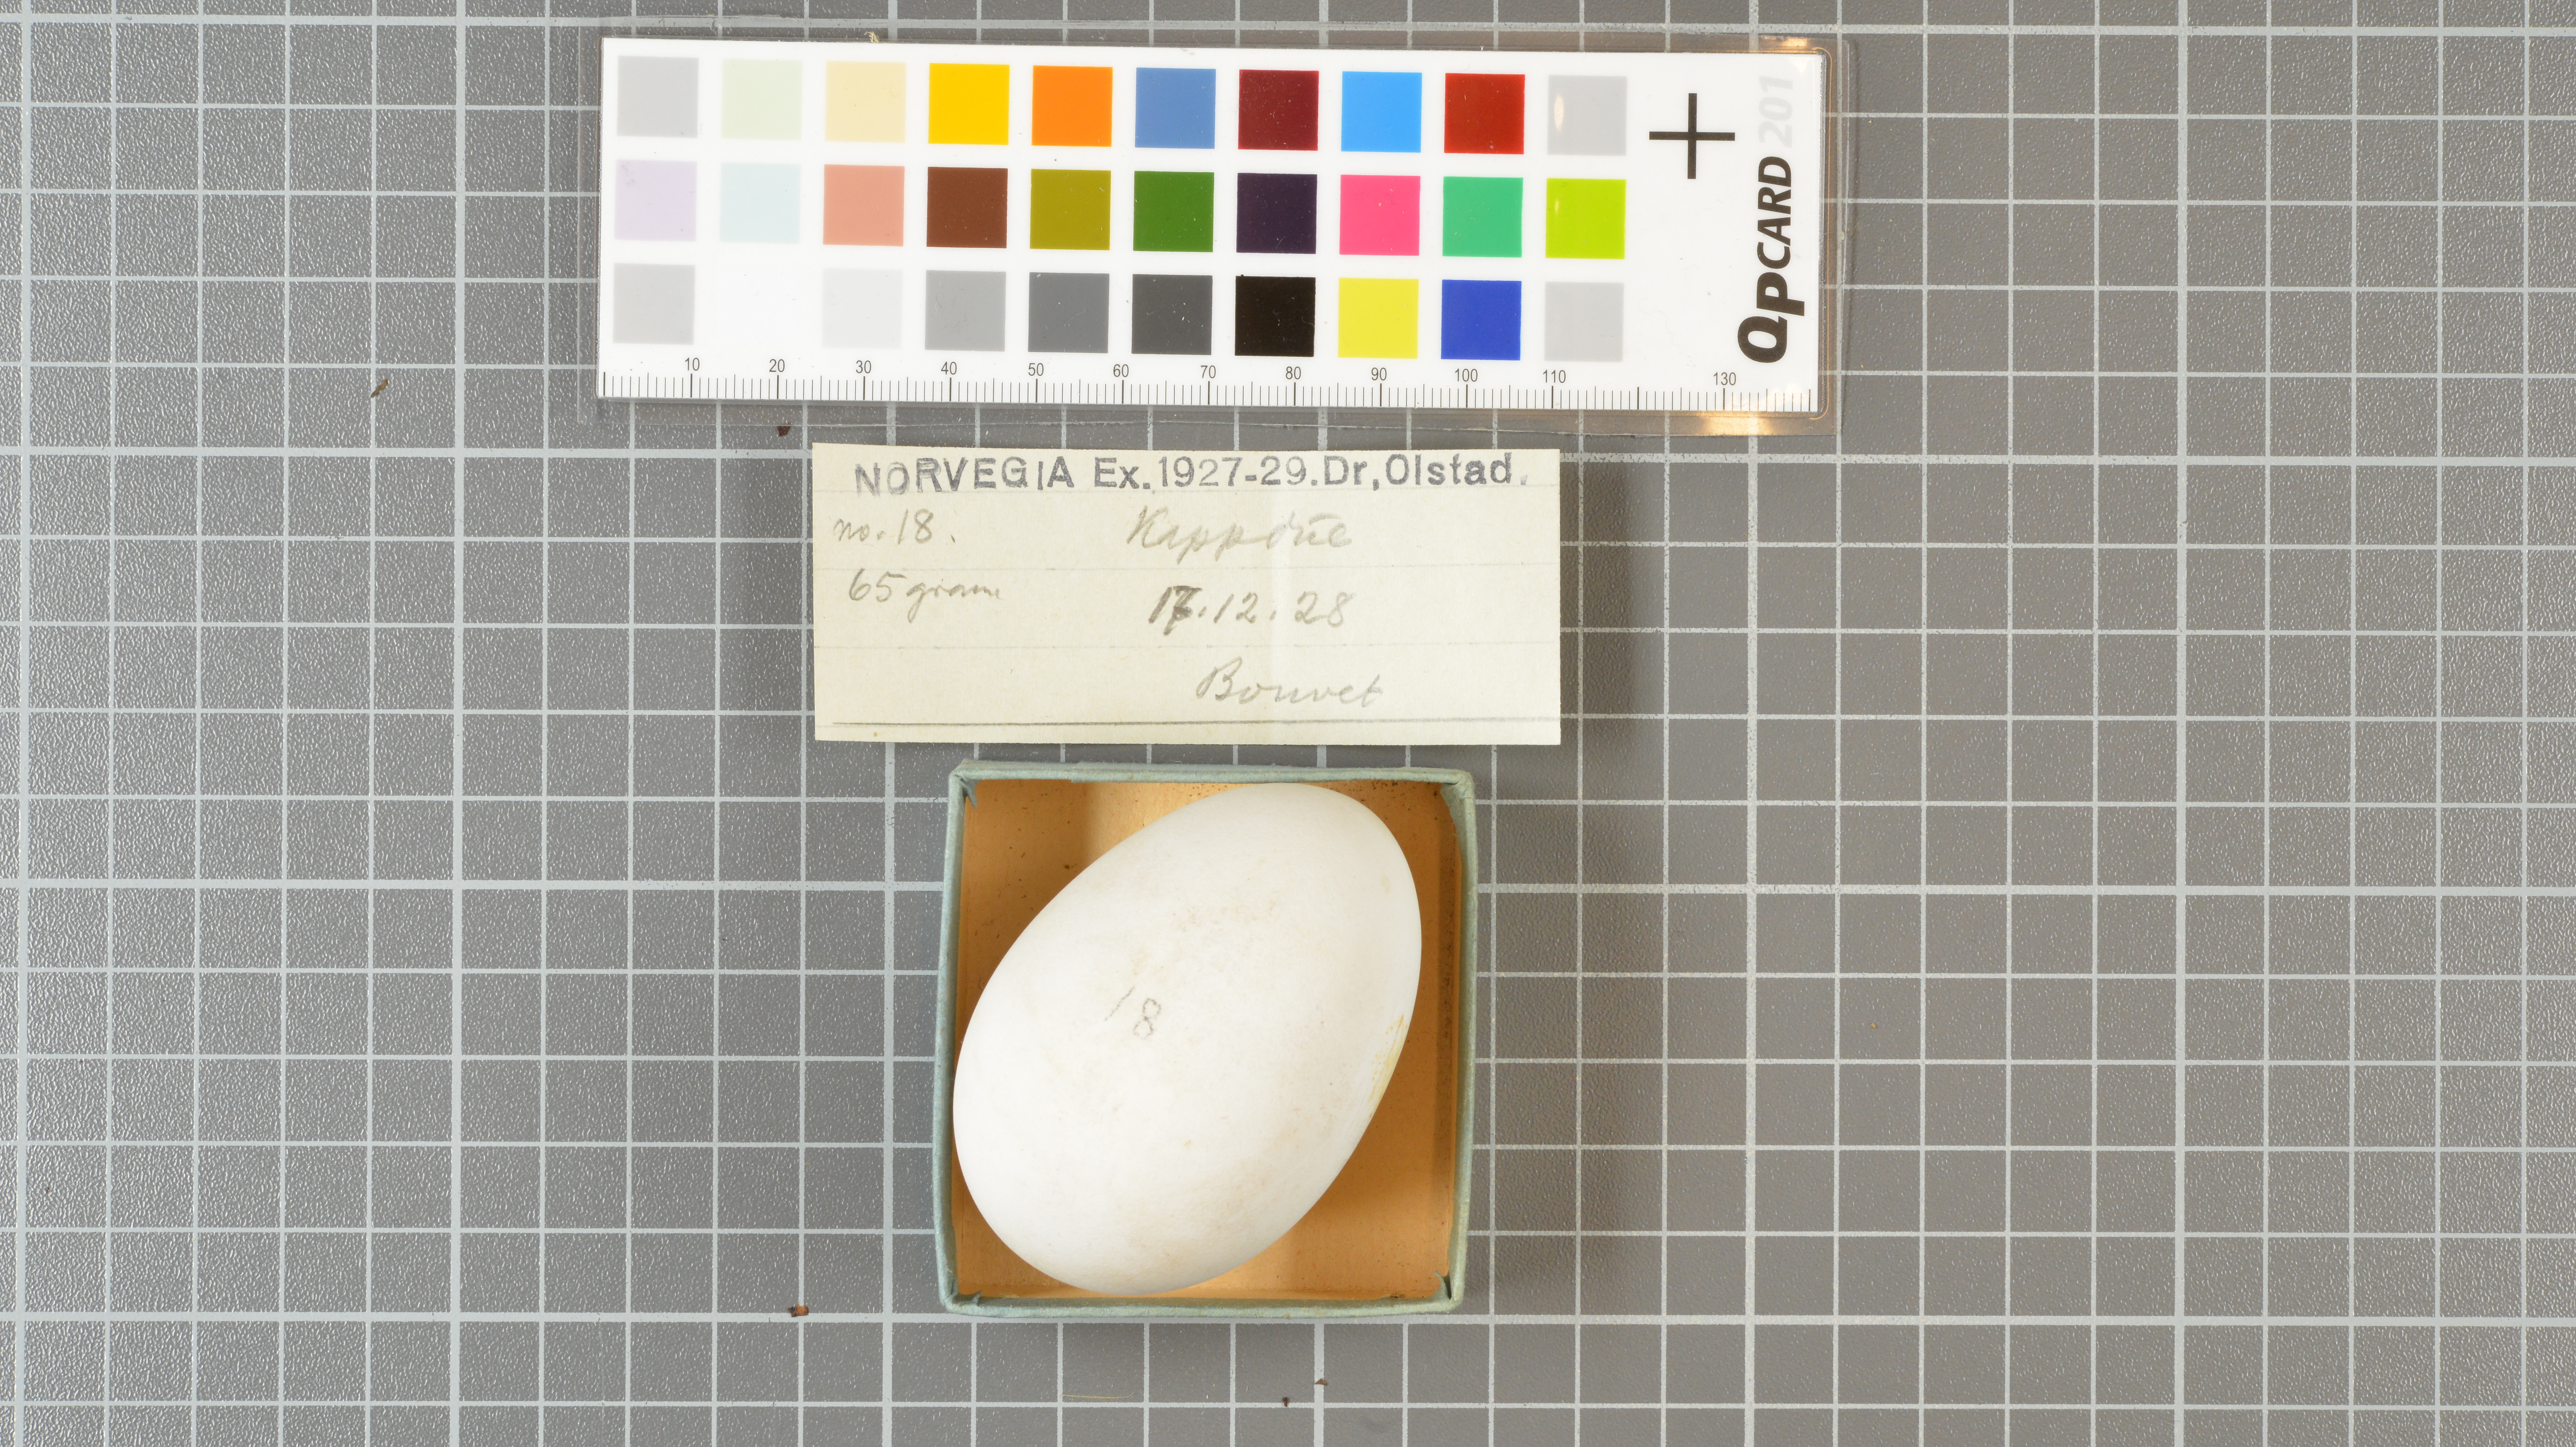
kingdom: Animalia
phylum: Chordata
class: Aves
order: Procellariiformes
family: Procellariidae
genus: Daption
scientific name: Daption capense
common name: Cape petrel
